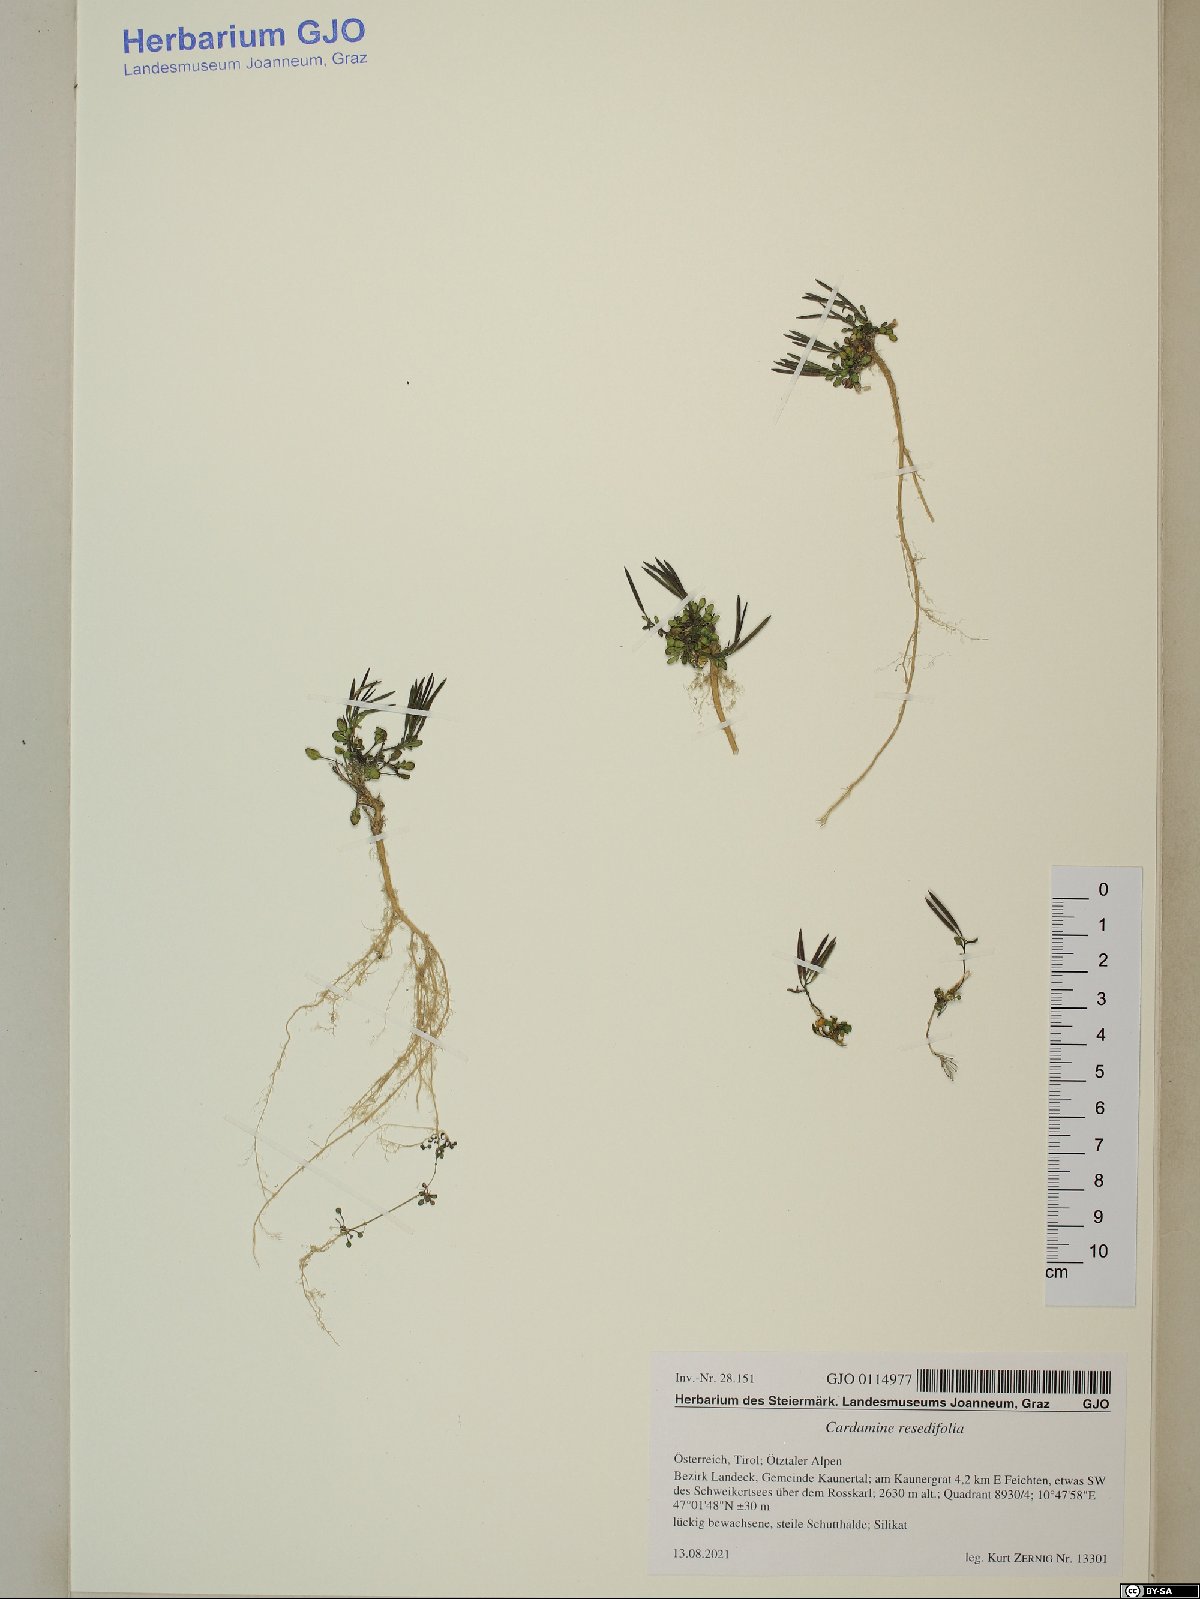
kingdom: Plantae
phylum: Tracheophyta
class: Magnoliopsida
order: Brassicales
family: Brassicaceae
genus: Cardamine
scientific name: Cardamine resedifolia
